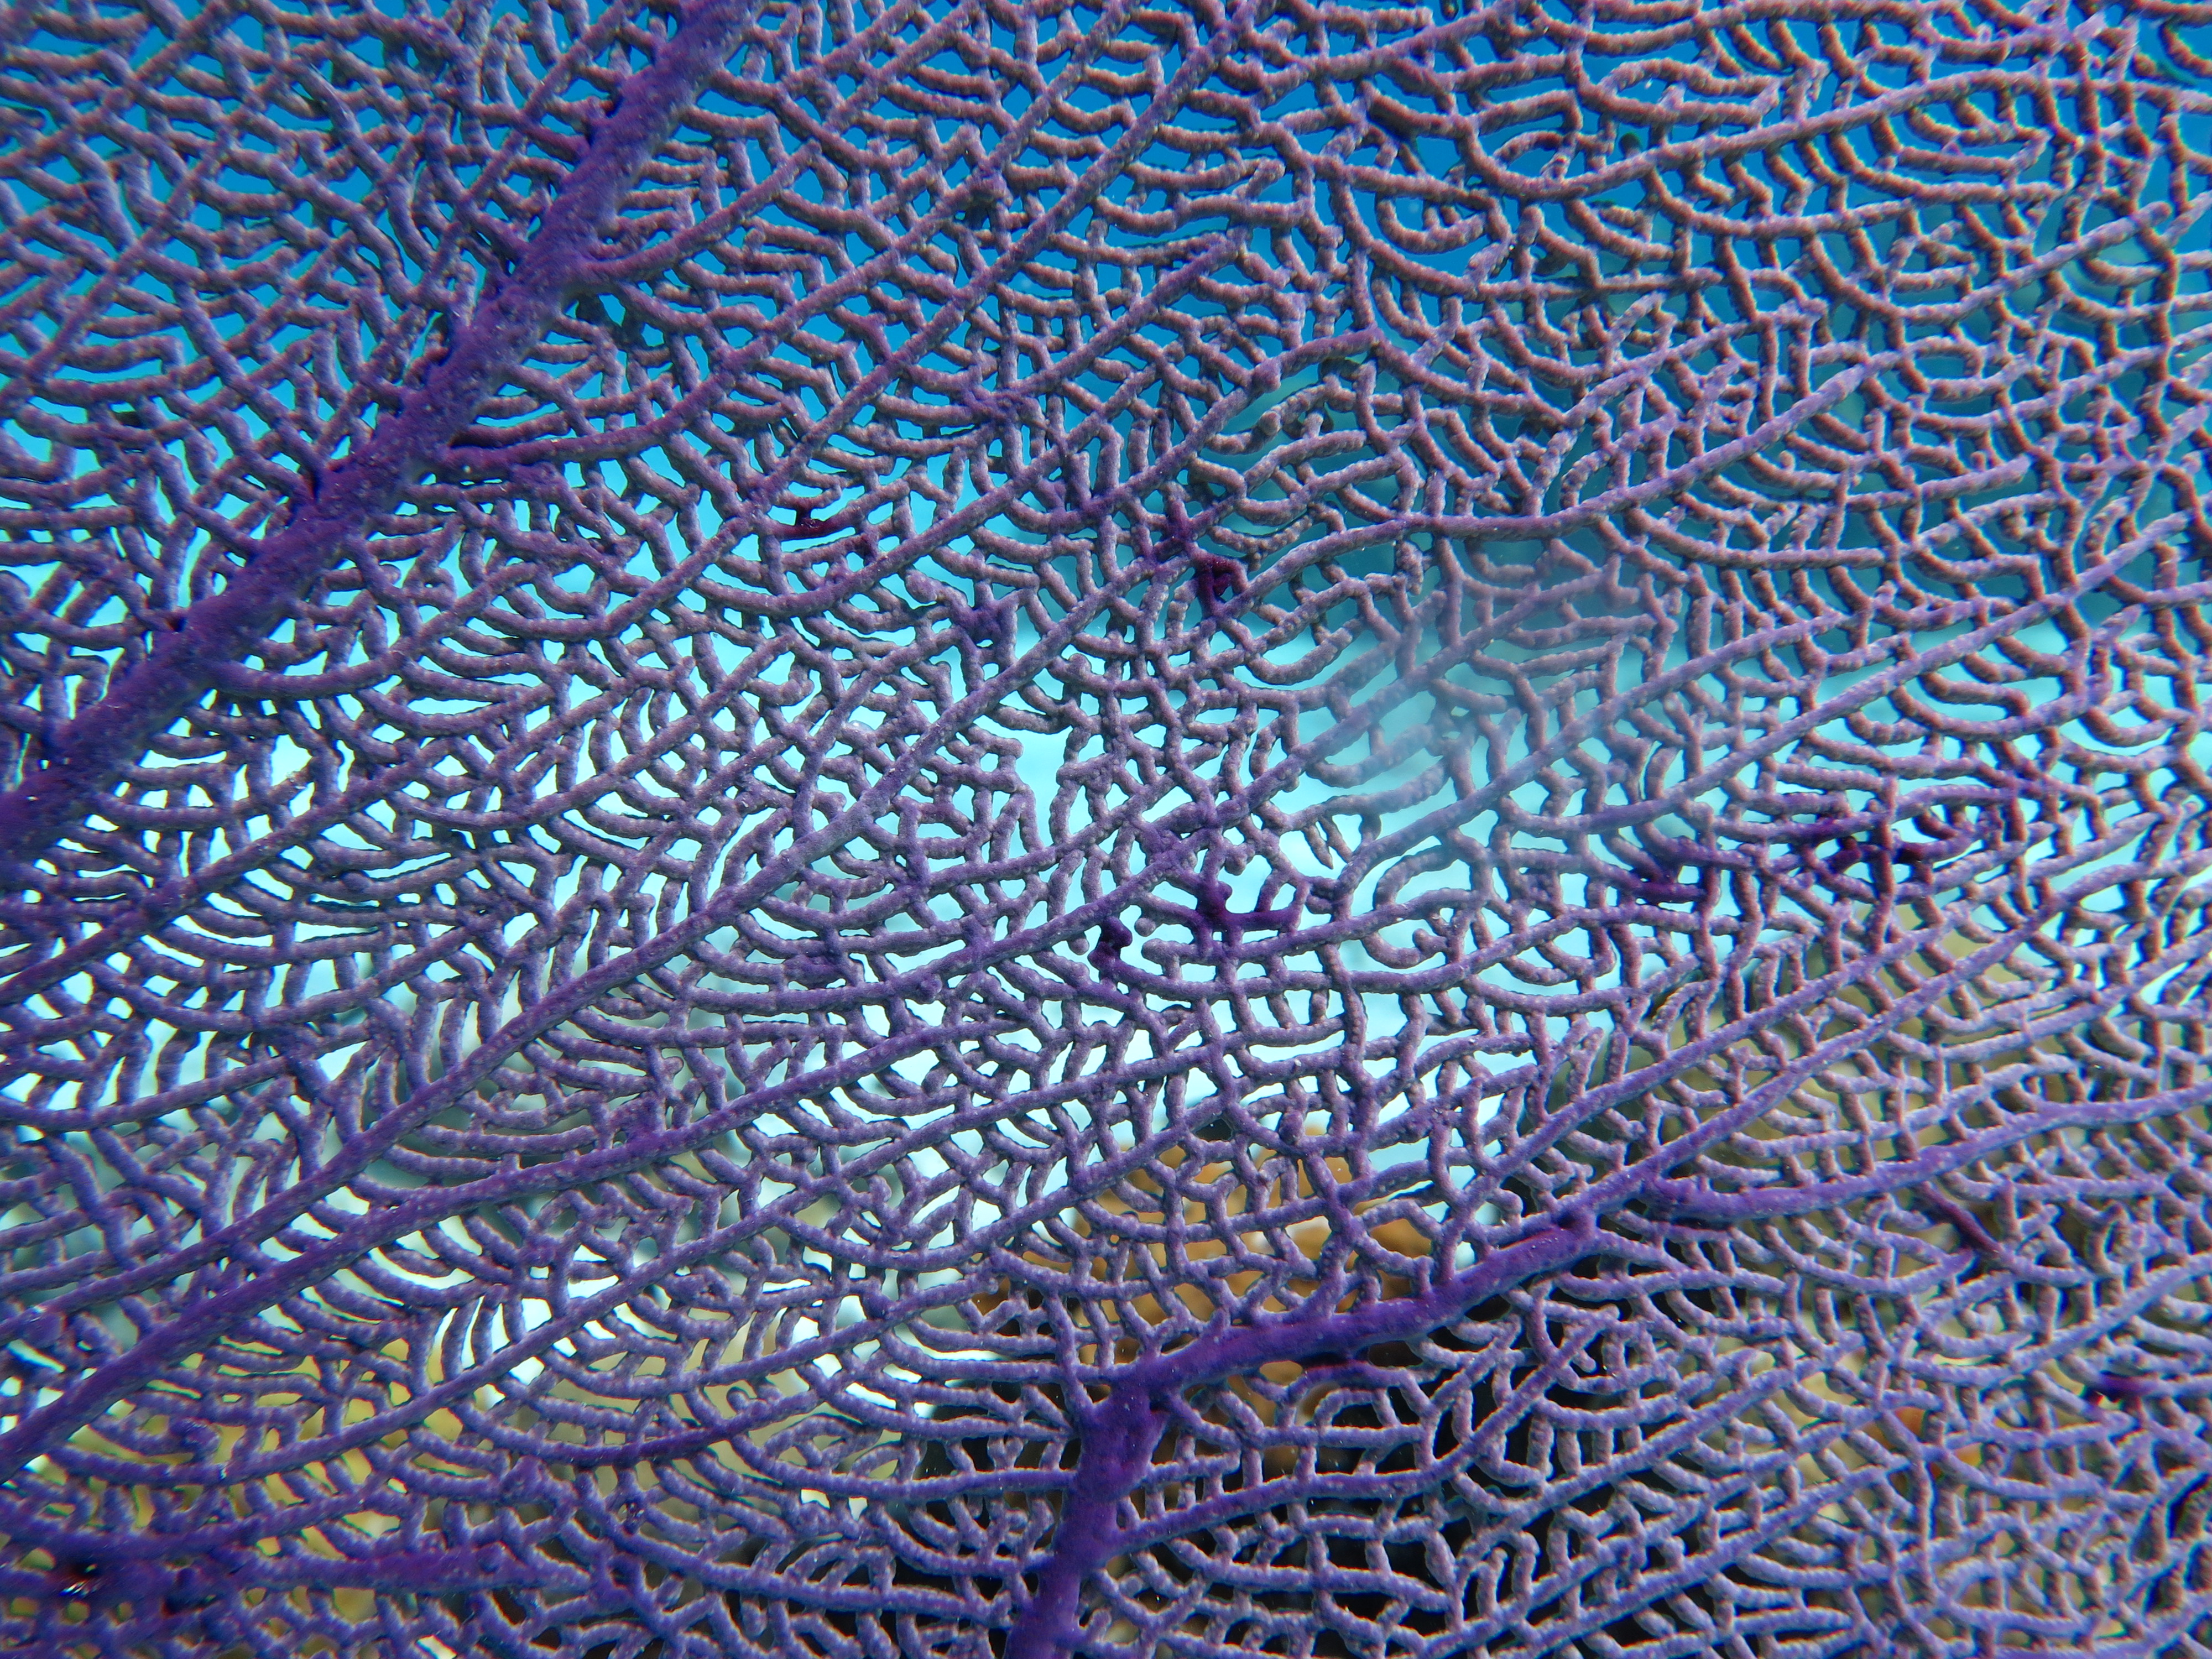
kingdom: Animalia
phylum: Cnidaria
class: Anthozoa
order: Malacalcyonacea
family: Gorgoniidae
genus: Gorgonia
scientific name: Gorgonia ventalina
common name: Common sea fan
